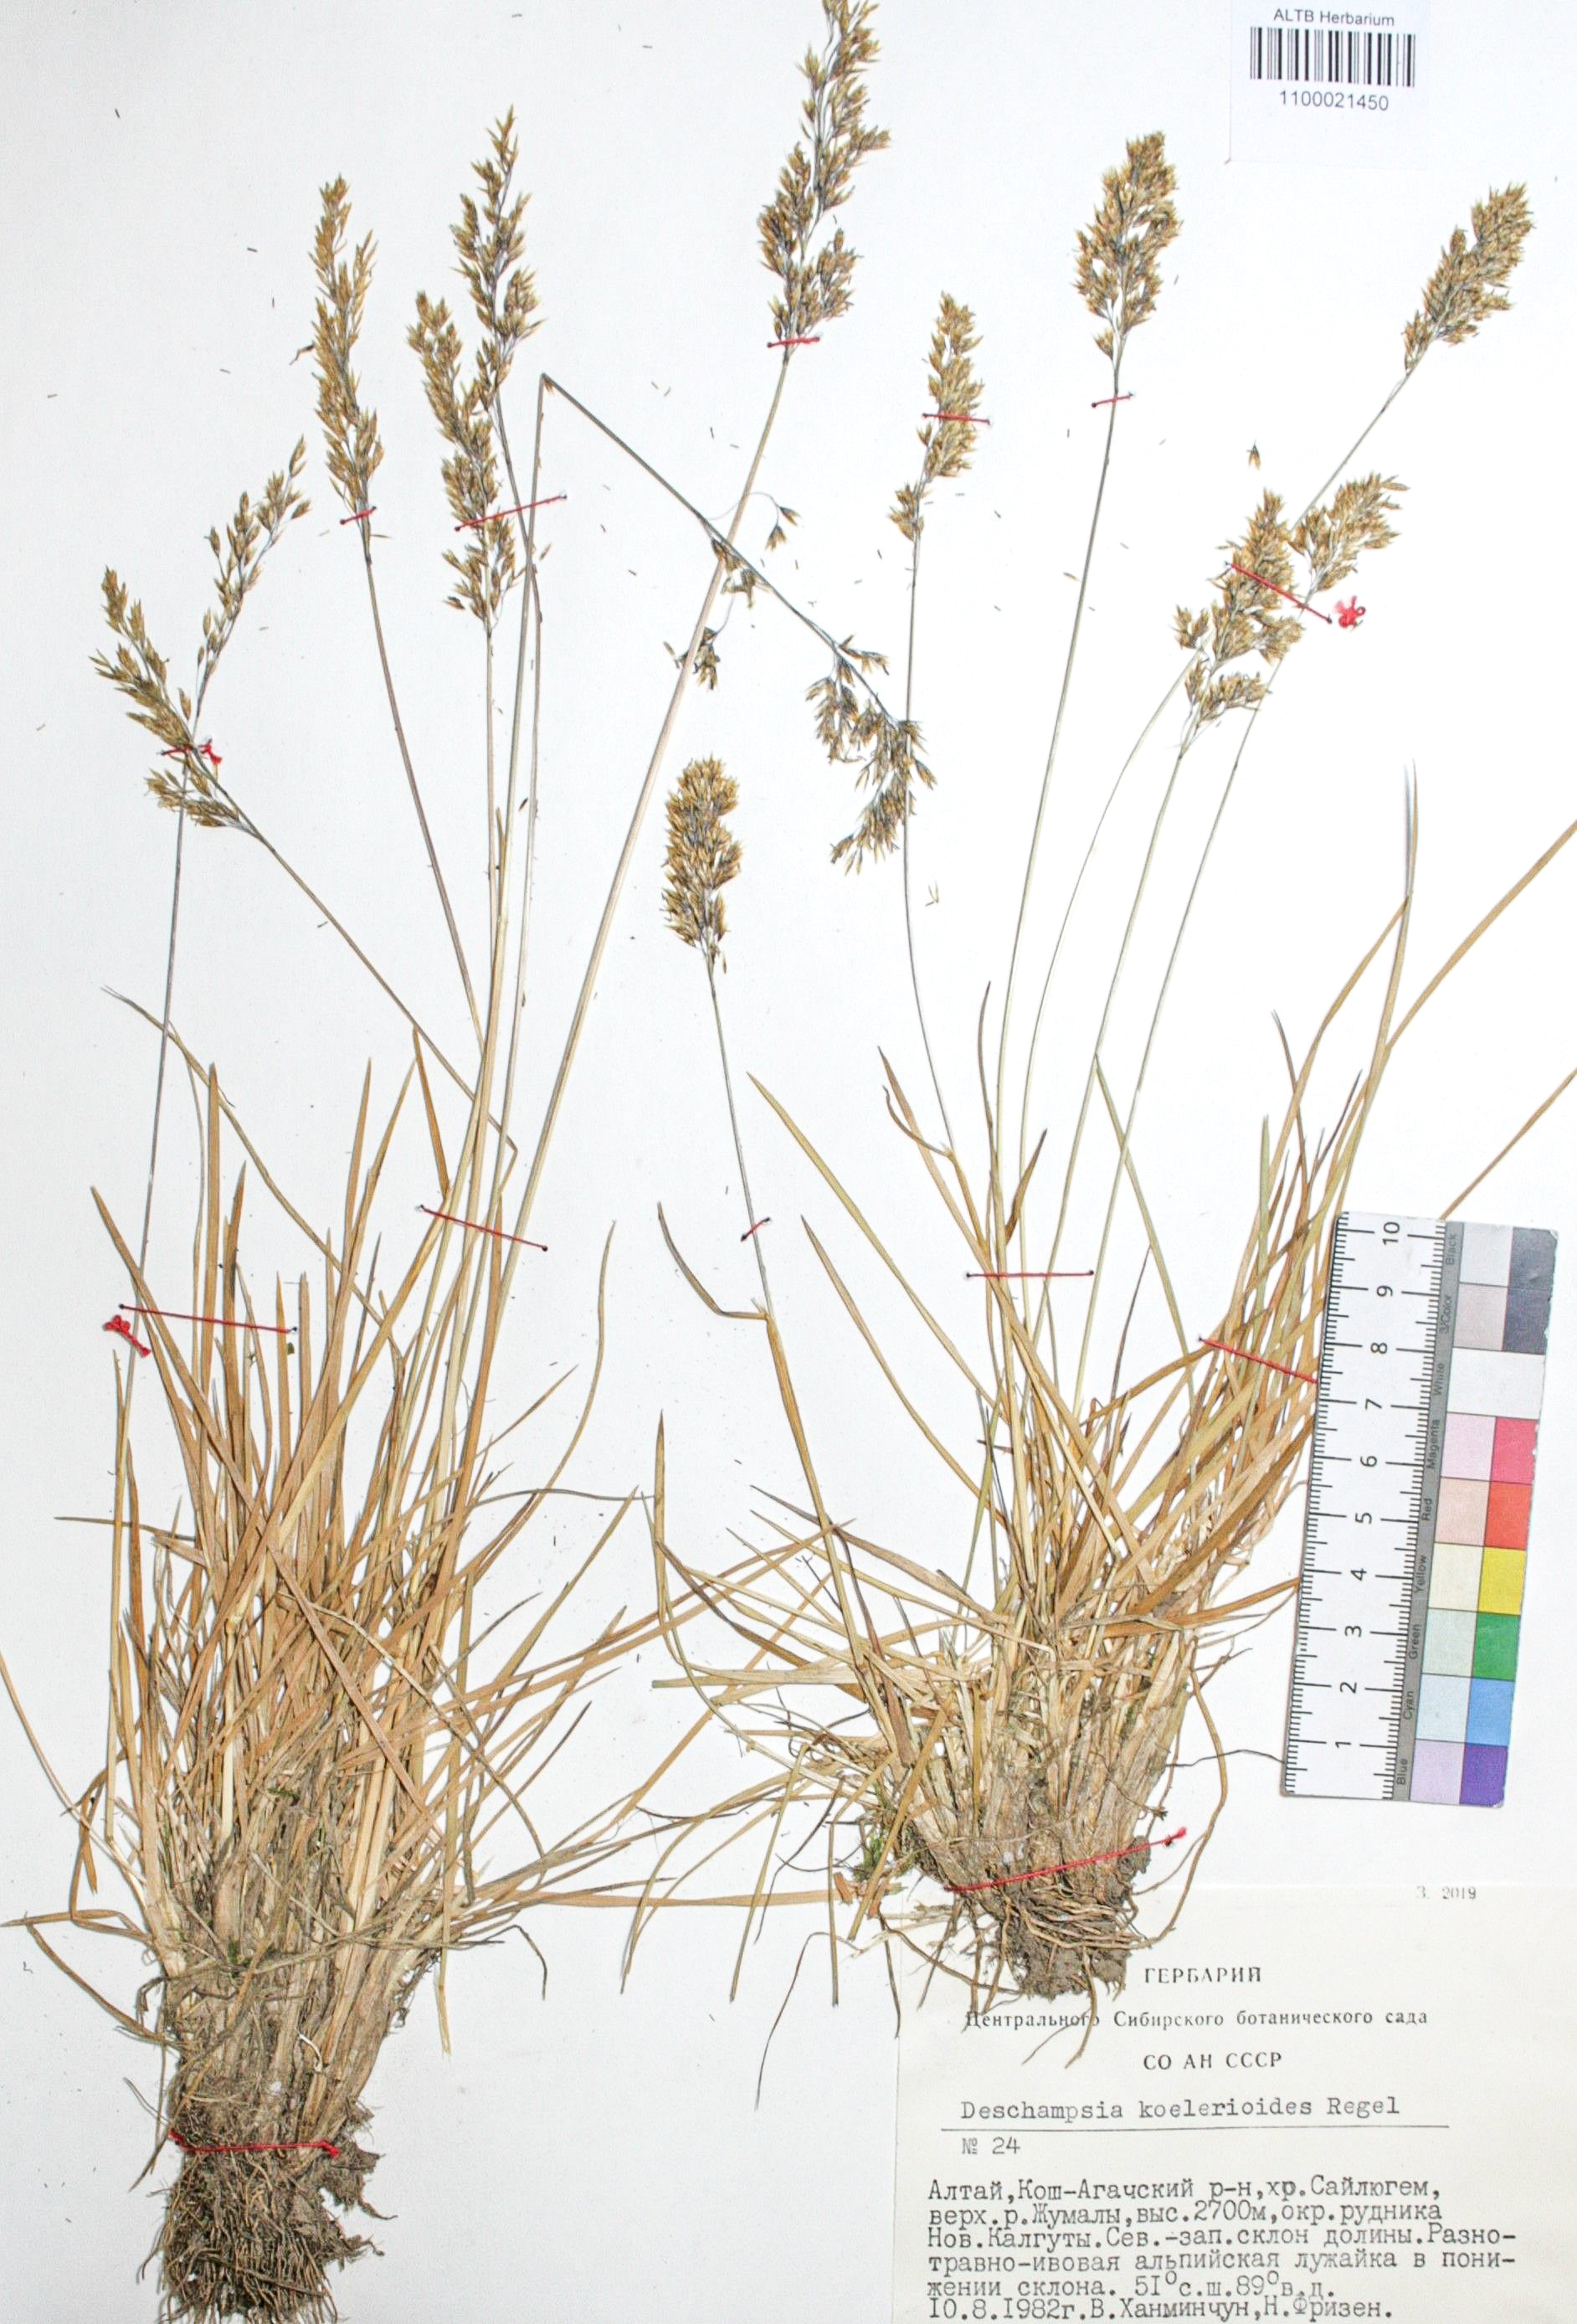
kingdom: Plantae
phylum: Tracheophyta
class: Liliopsida
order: Poales
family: Poaceae
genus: Deschampsia
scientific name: Deschampsia koelerioides
